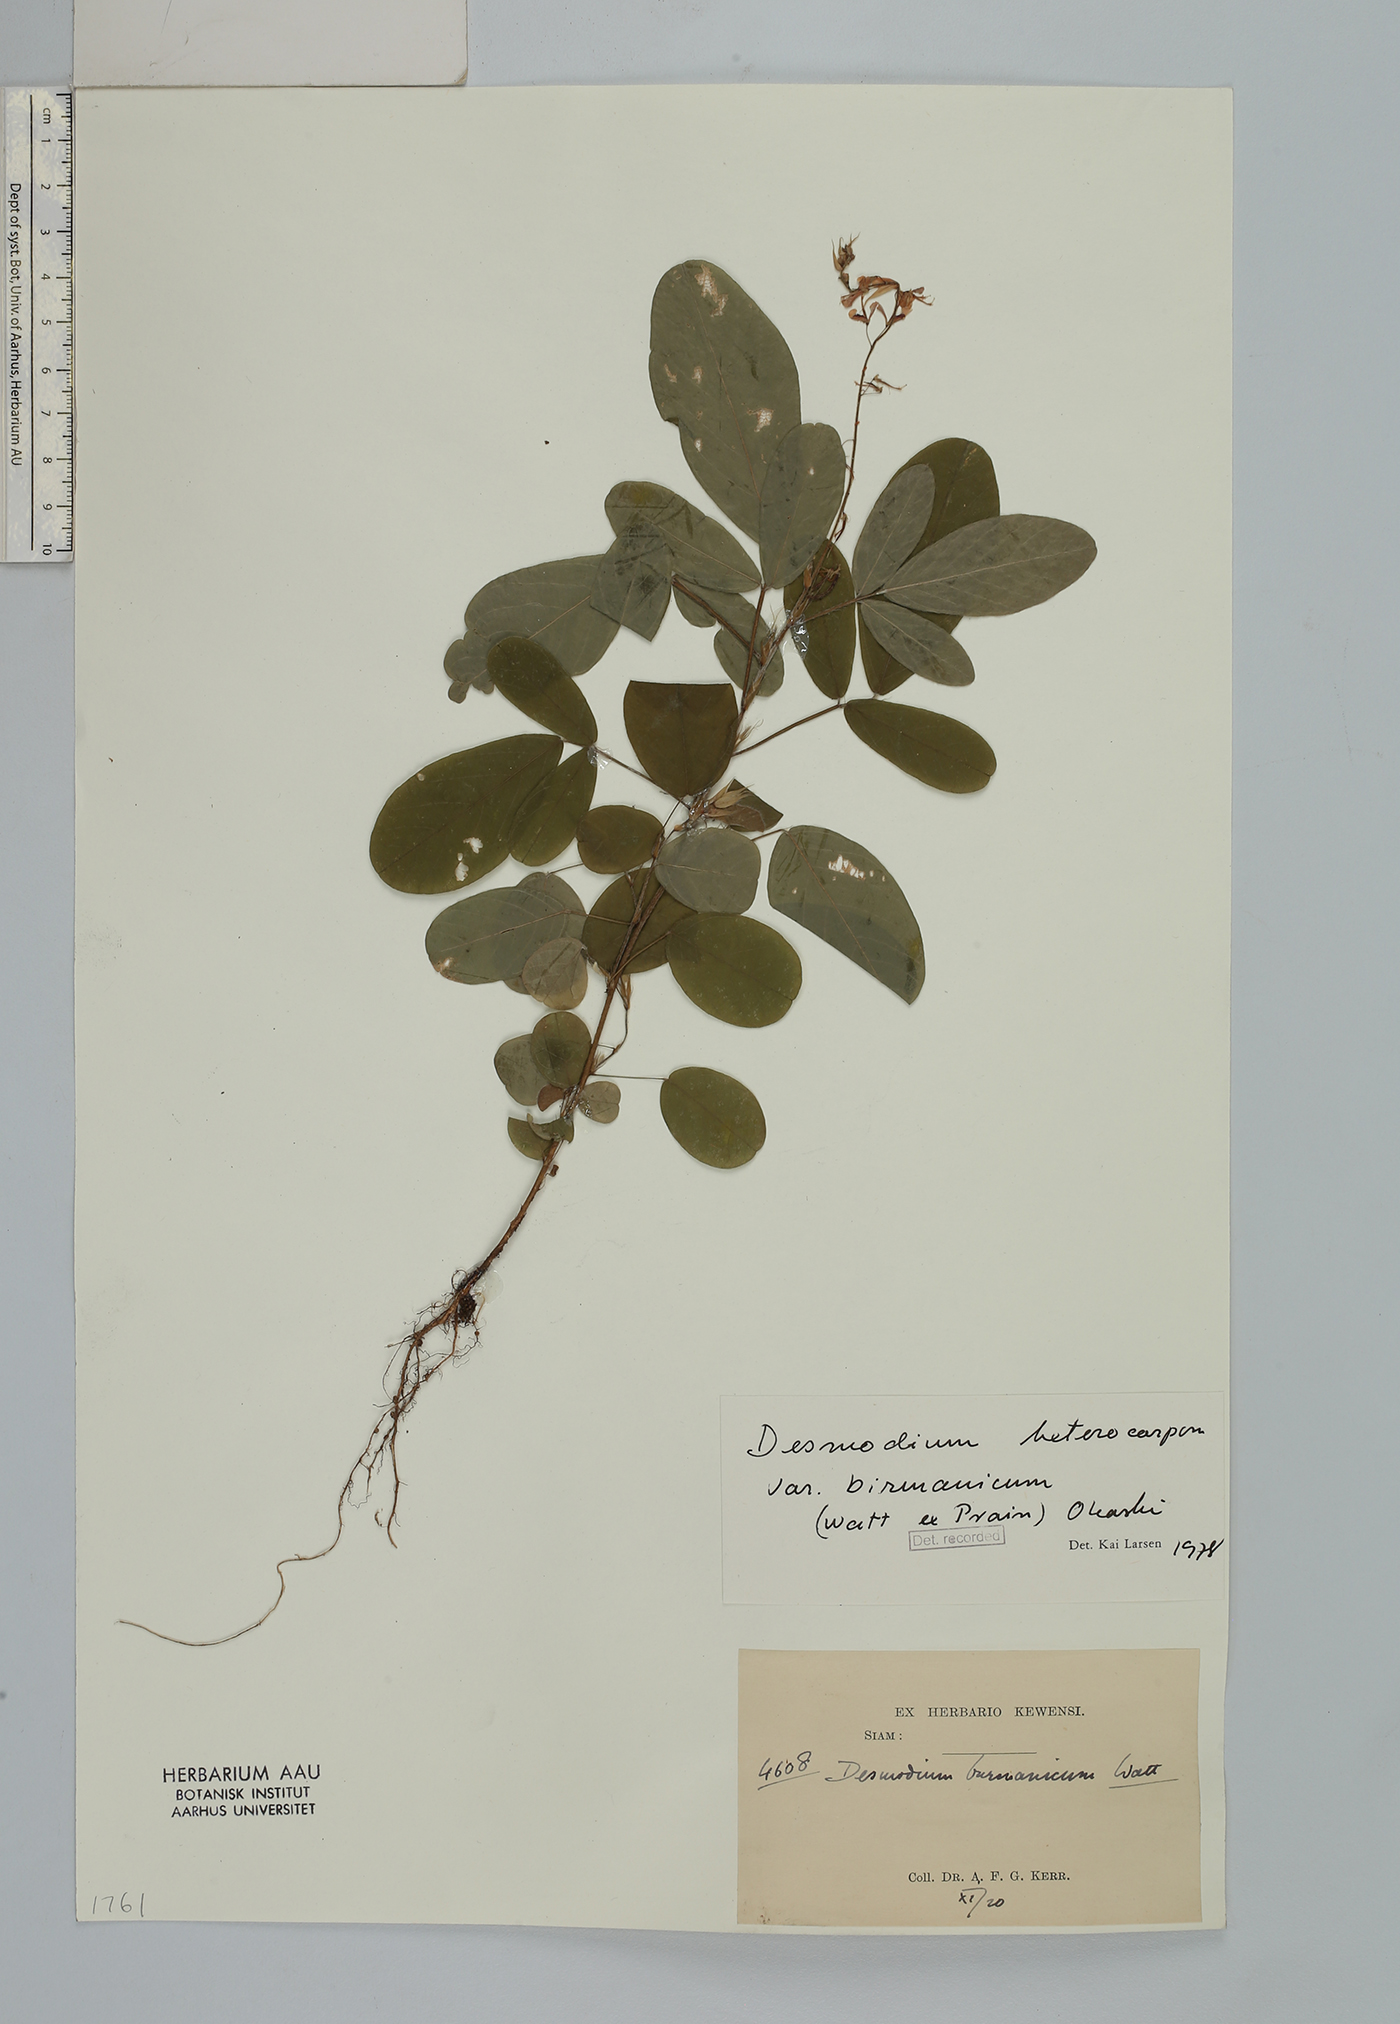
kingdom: Plantae
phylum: Tracheophyta
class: Magnoliopsida
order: Fabales
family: Fabaceae
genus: Grona
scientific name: Grona heterocarpos
